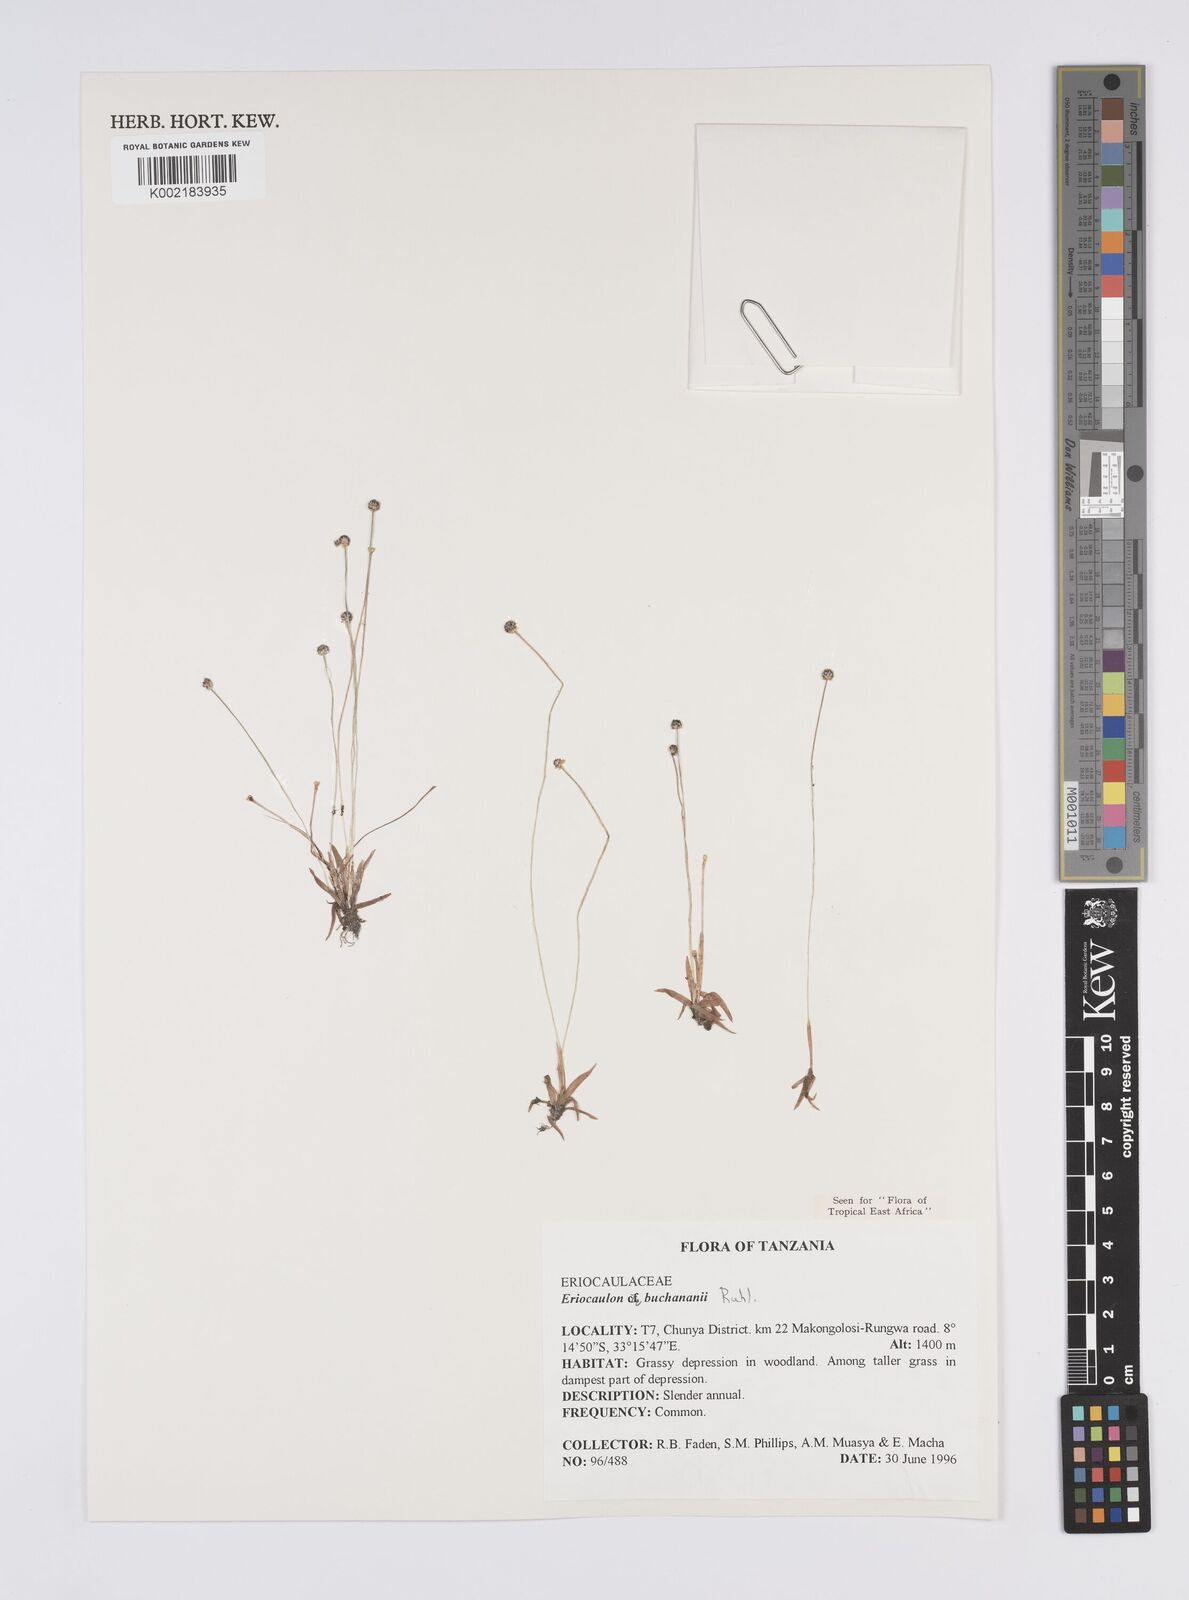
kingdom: Plantae
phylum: Tracheophyta
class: Liliopsida
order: Poales
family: Eriocaulaceae
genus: Eriocaulon
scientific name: Eriocaulon buchananii
